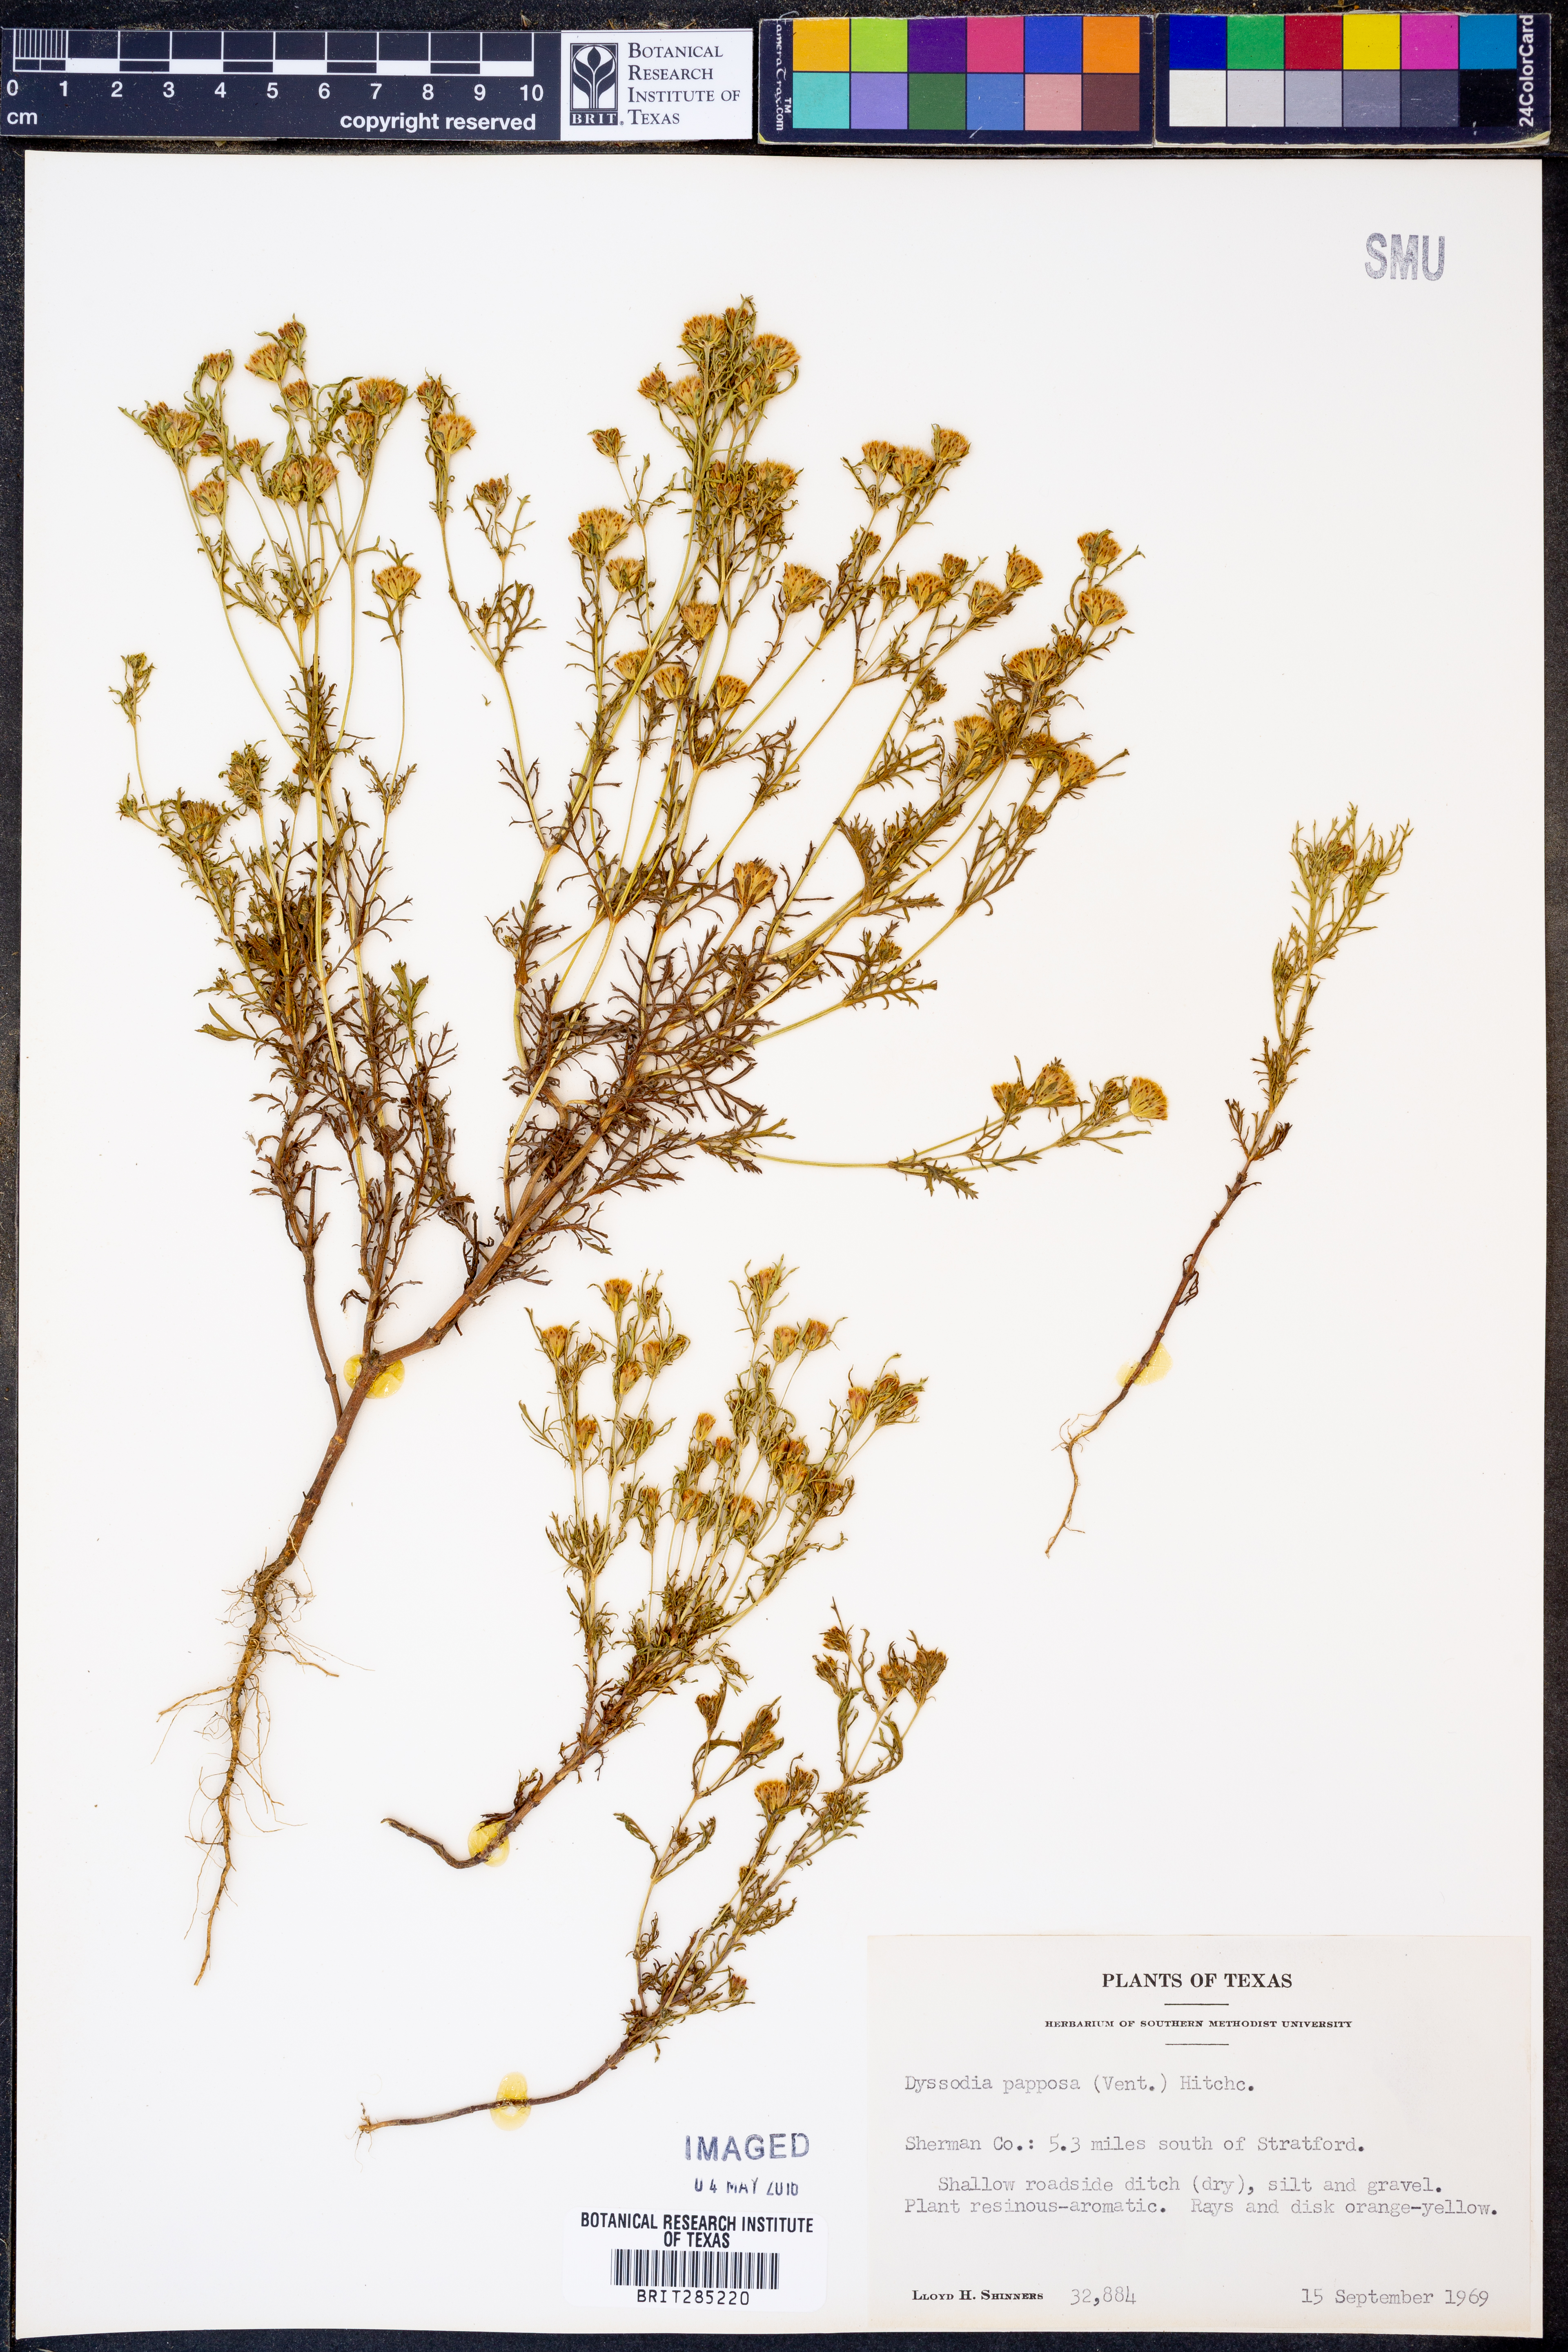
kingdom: Plantae
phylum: Tracheophyta
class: Magnoliopsida
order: Asterales
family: Asteraceae
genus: Dyssodia
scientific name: Dyssodia papposa
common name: Dogweed
